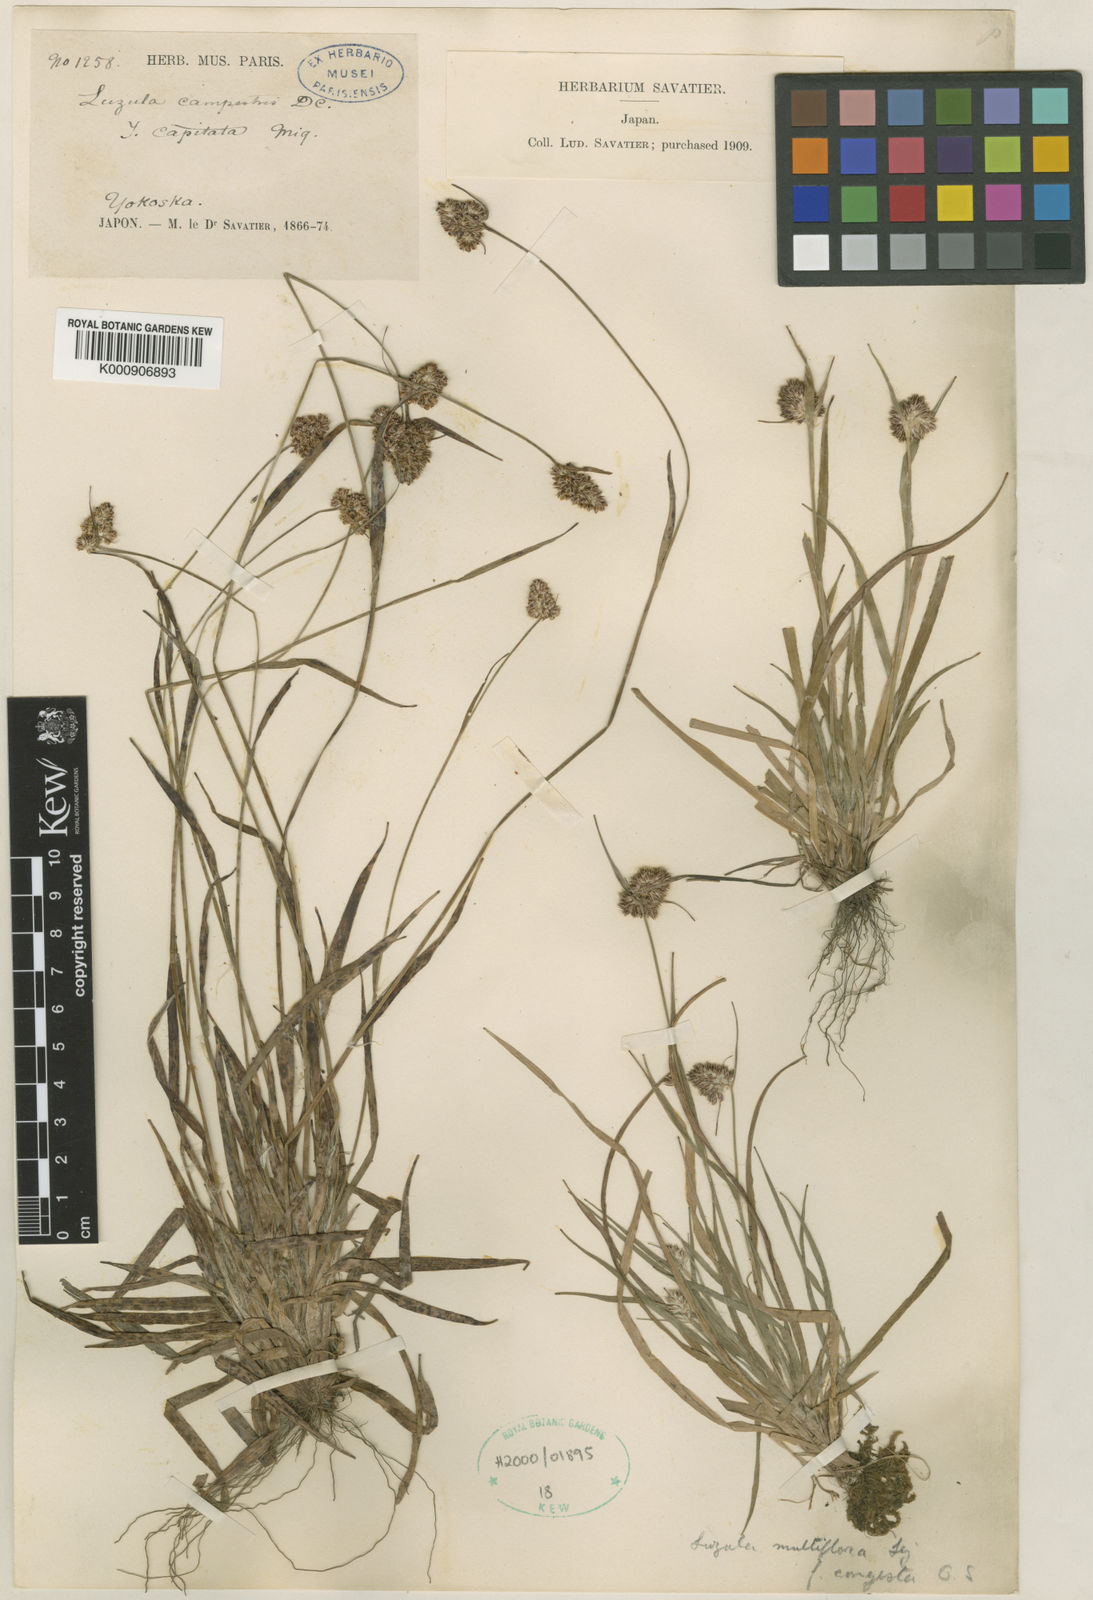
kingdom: Plantae
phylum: Tracheophyta
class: Liliopsida
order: Poales
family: Juncaceae
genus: Luzula
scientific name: Luzula capitata
